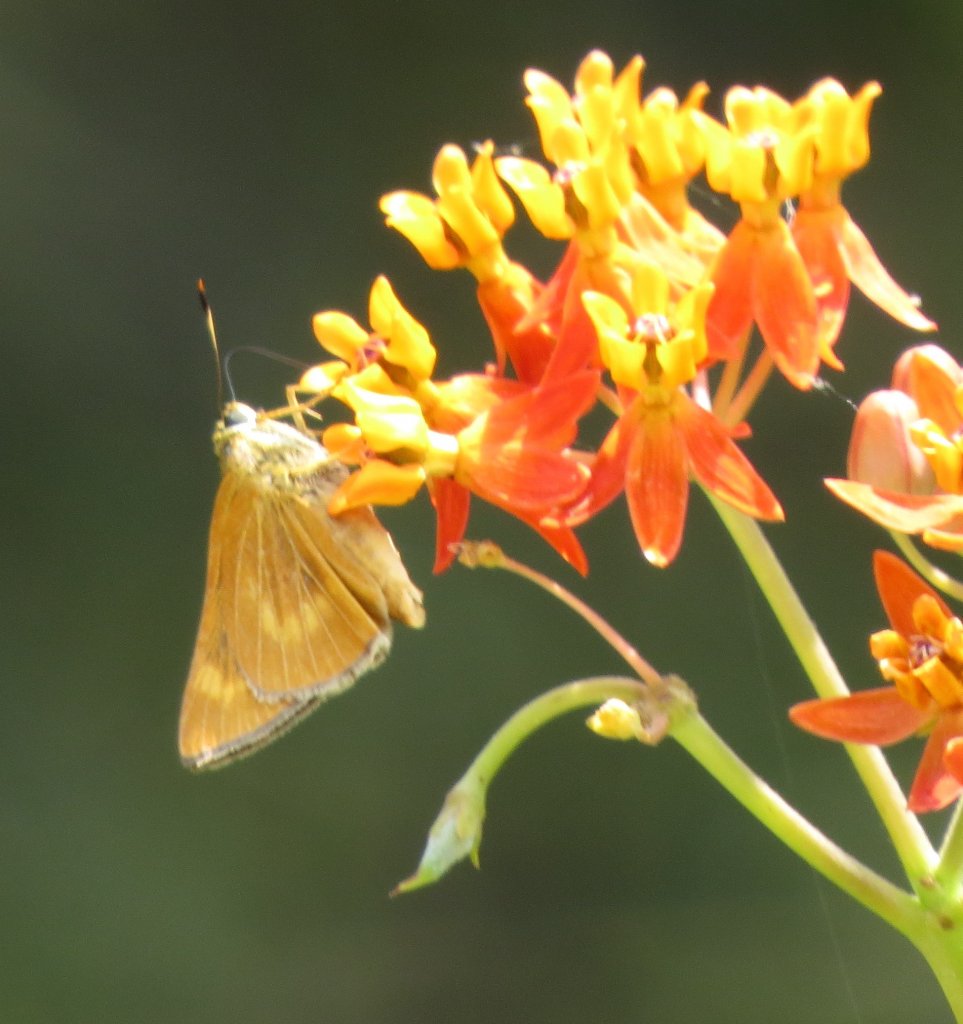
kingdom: Animalia
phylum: Arthropoda
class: Insecta
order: Lepidoptera
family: Hesperiidae
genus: Problema
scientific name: Problema byssus
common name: Byssus Skipper
